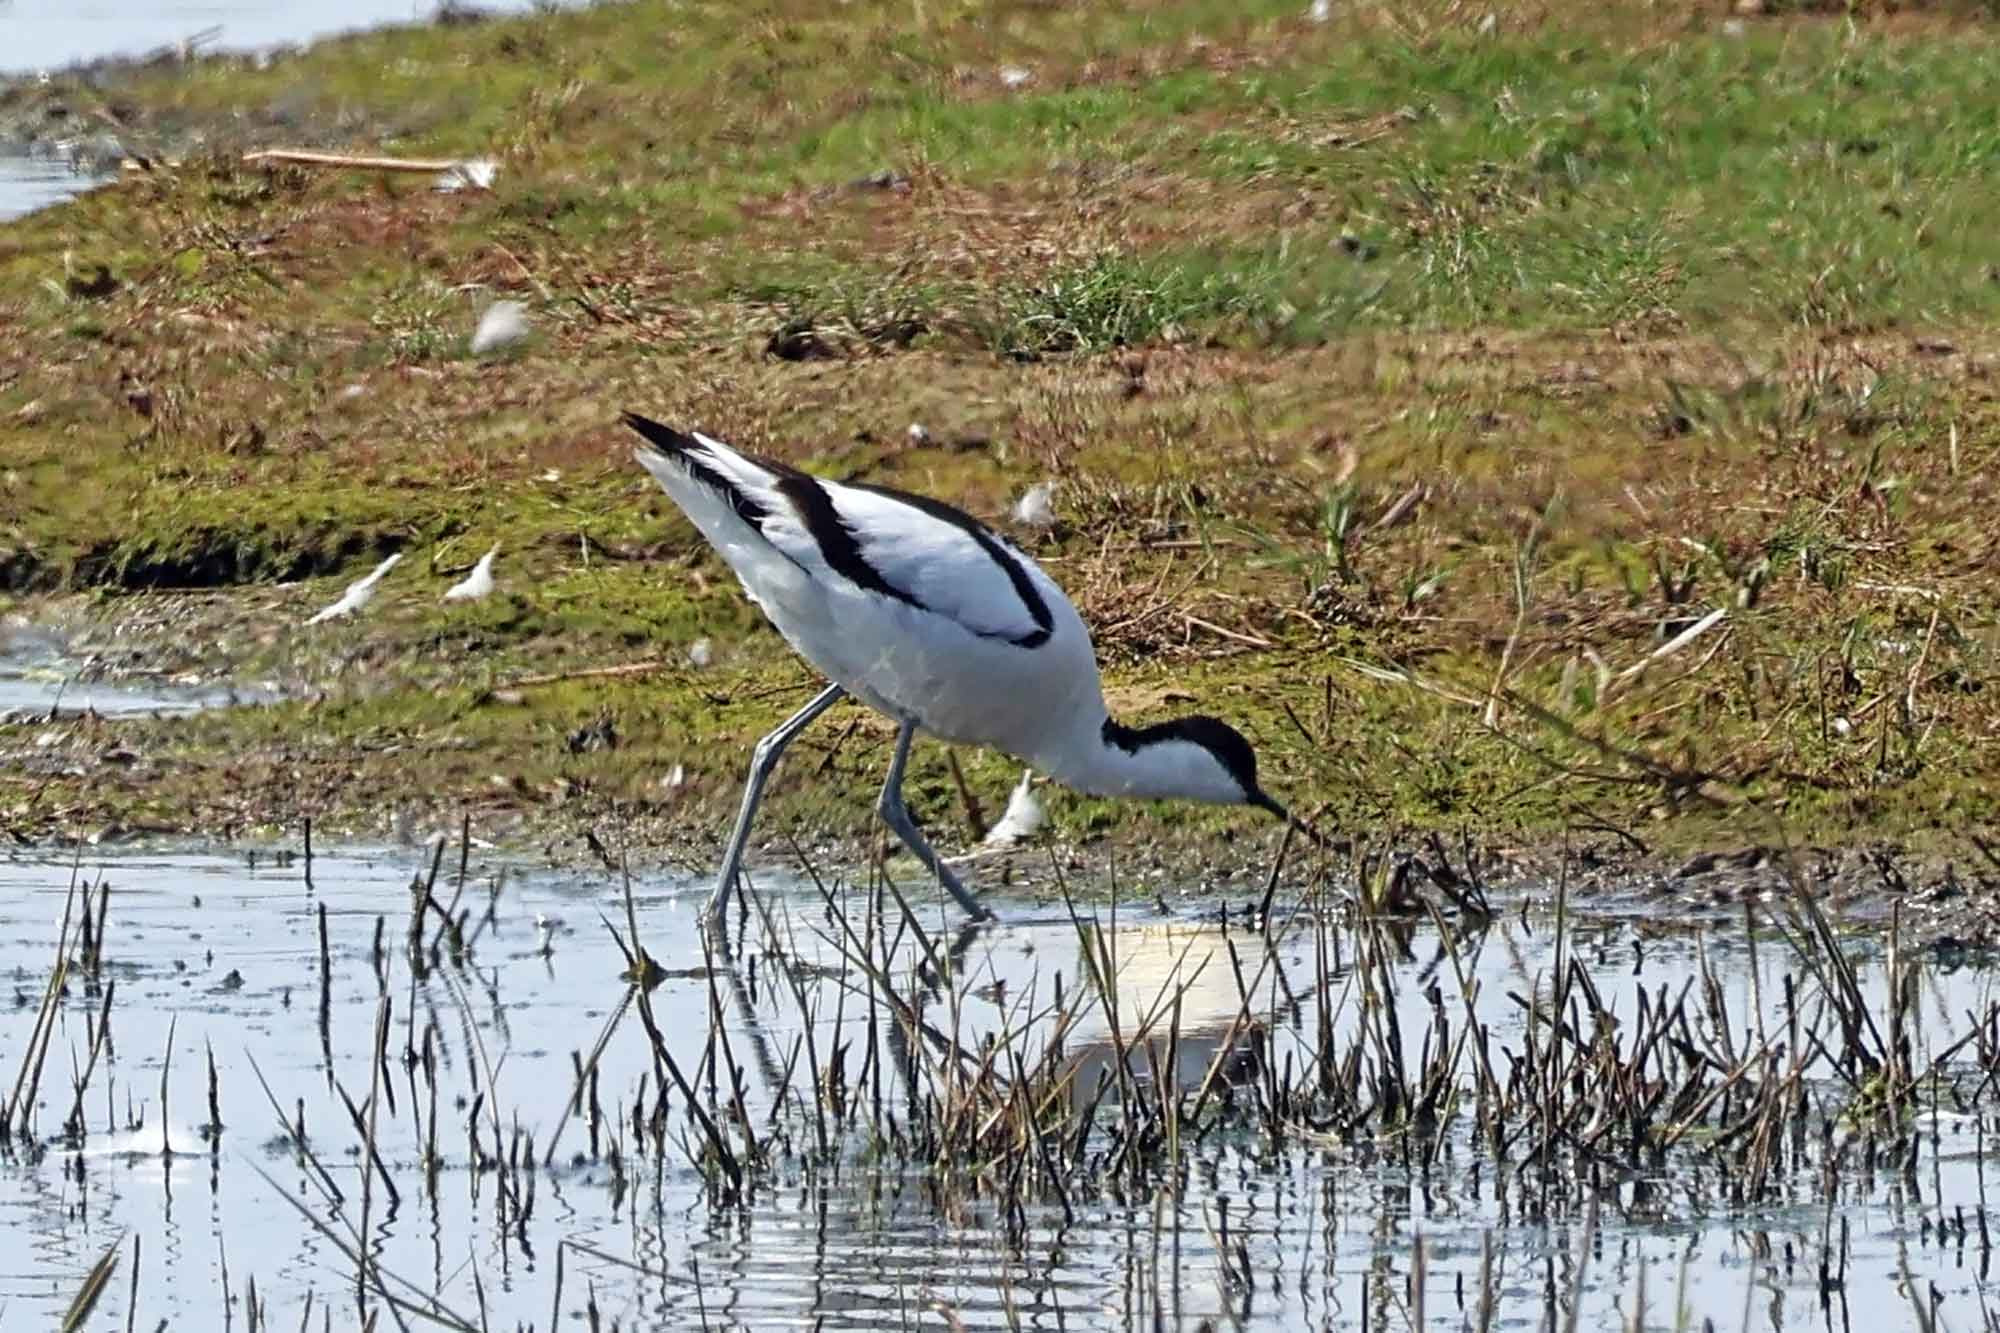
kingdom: Animalia
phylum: Chordata
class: Aves
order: Charadriiformes
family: Recurvirostridae
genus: Recurvirostra
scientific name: Recurvirostra avosetta
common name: Klyde
